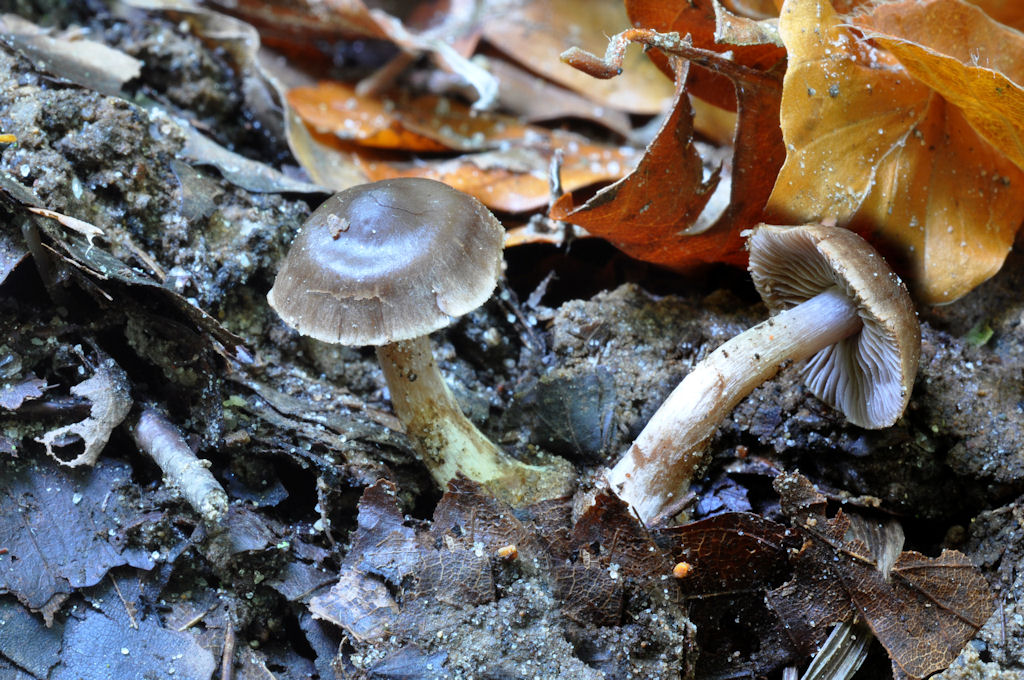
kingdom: Fungi
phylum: Basidiomycota
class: Agaricomycetes
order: Agaricales
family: Cortinariaceae
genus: Cortinarius
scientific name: Cortinarius bonachei
